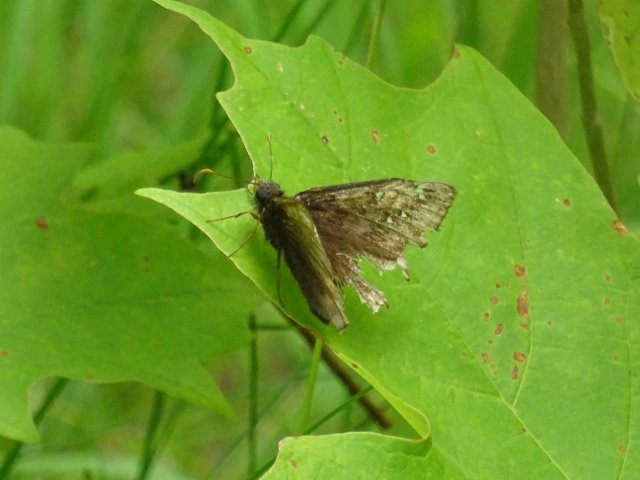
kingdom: Animalia
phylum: Arthropoda
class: Insecta
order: Lepidoptera
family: Hesperiidae
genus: Gesta
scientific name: Gesta
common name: Juvenal's Duskywing
